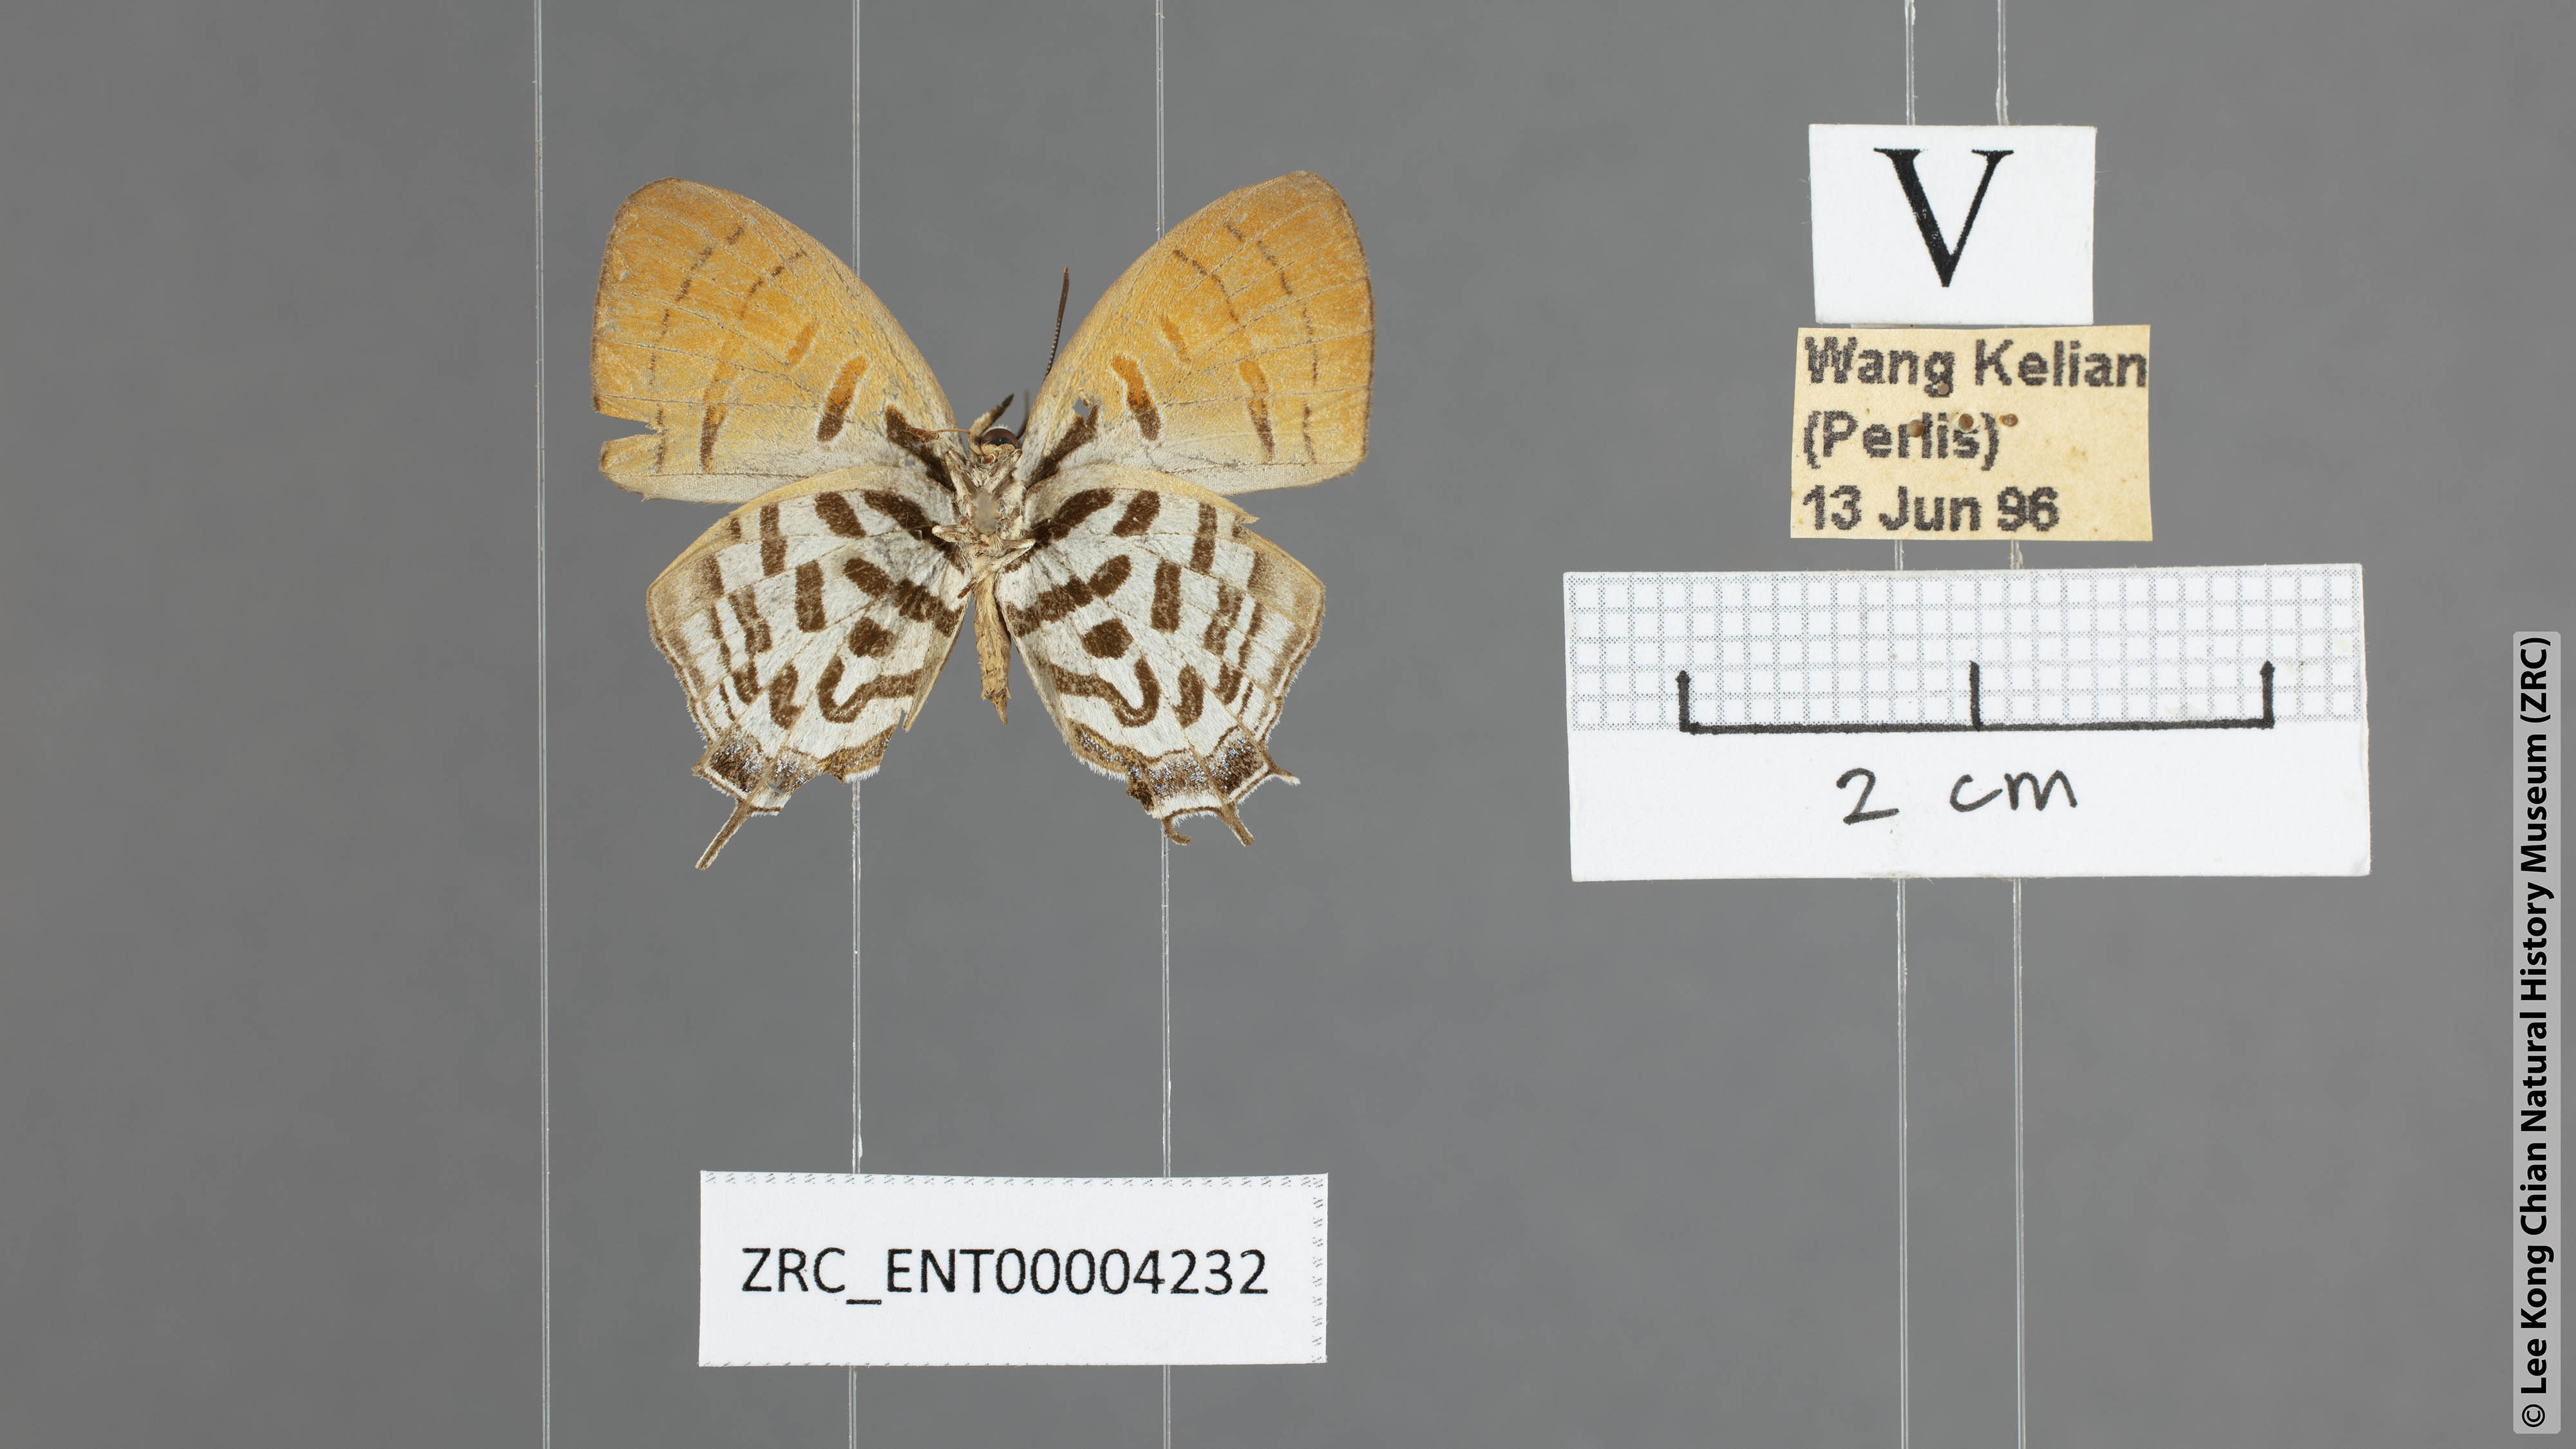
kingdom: Animalia
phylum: Arthropoda
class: Insecta
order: Lepidoptera
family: Lycaenidae
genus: Drupadia
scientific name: Drupadia theda
